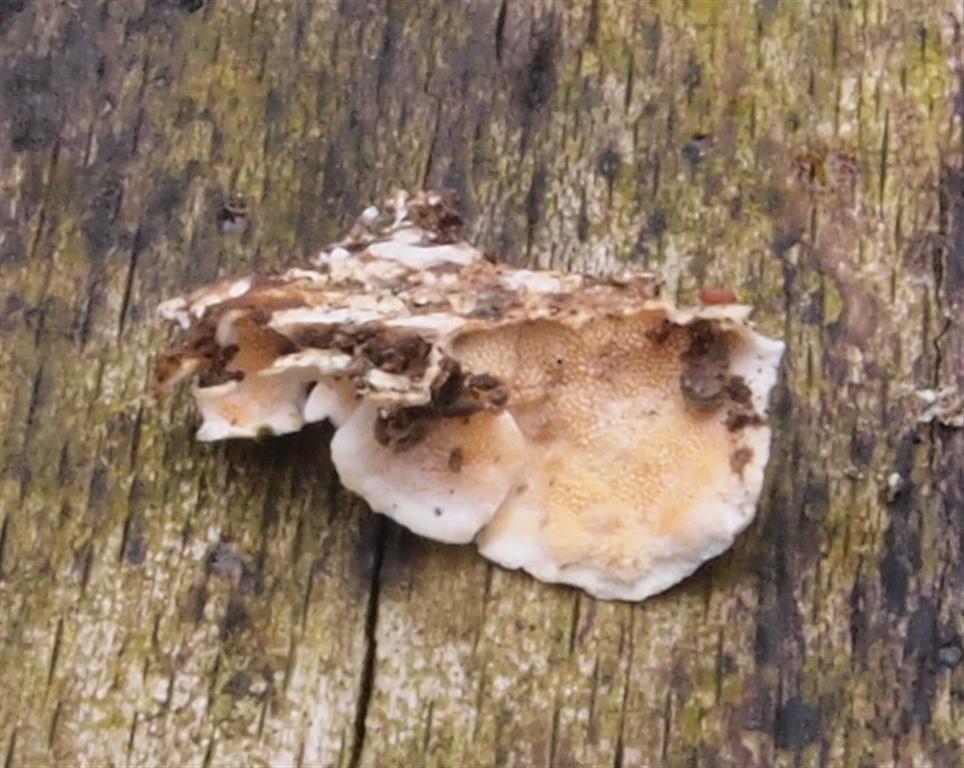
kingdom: Fungi
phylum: Basidiomycota
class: Agaricomycetes
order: Polyporales
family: Steccherinaceae
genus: Steccherinum
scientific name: Steccherinum ochraceum
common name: almindelig skønpig
